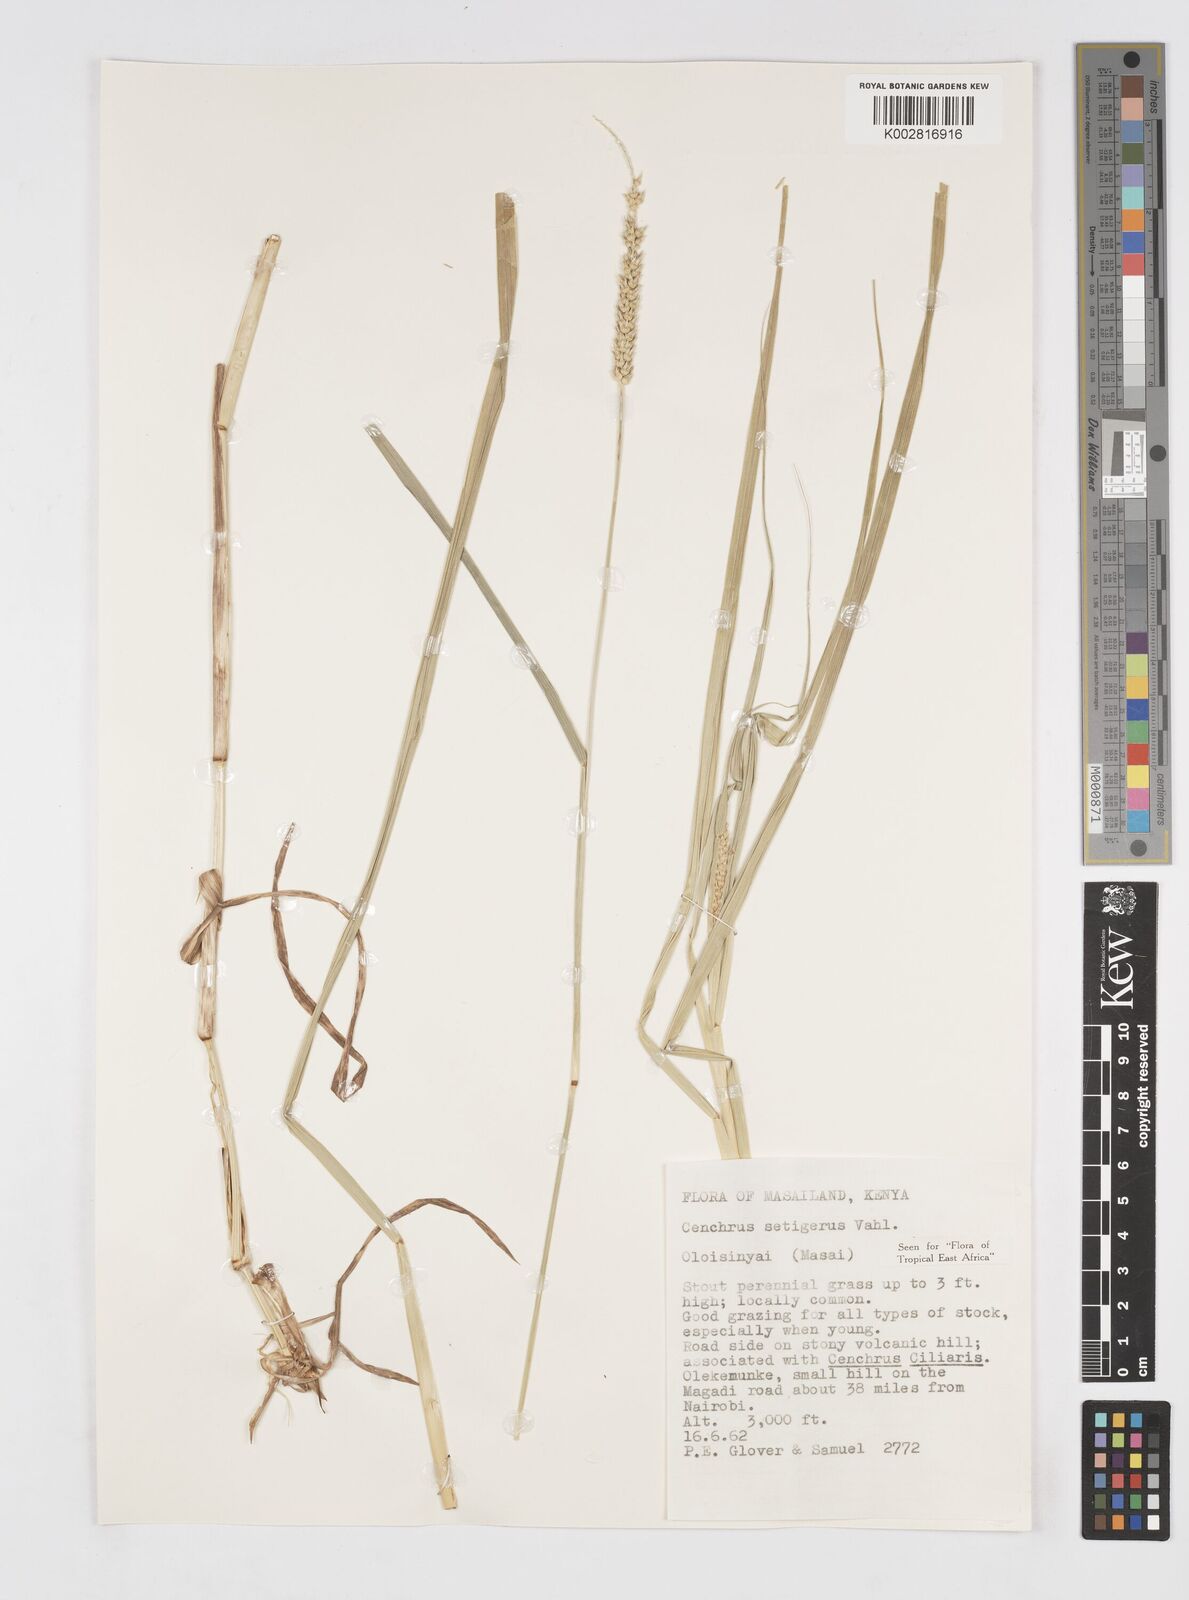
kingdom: Plantae
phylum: Tracheophyta
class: Liliopsida
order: Poales
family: Poaceae
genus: Cenchrus
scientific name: Cenchrus setigerus
